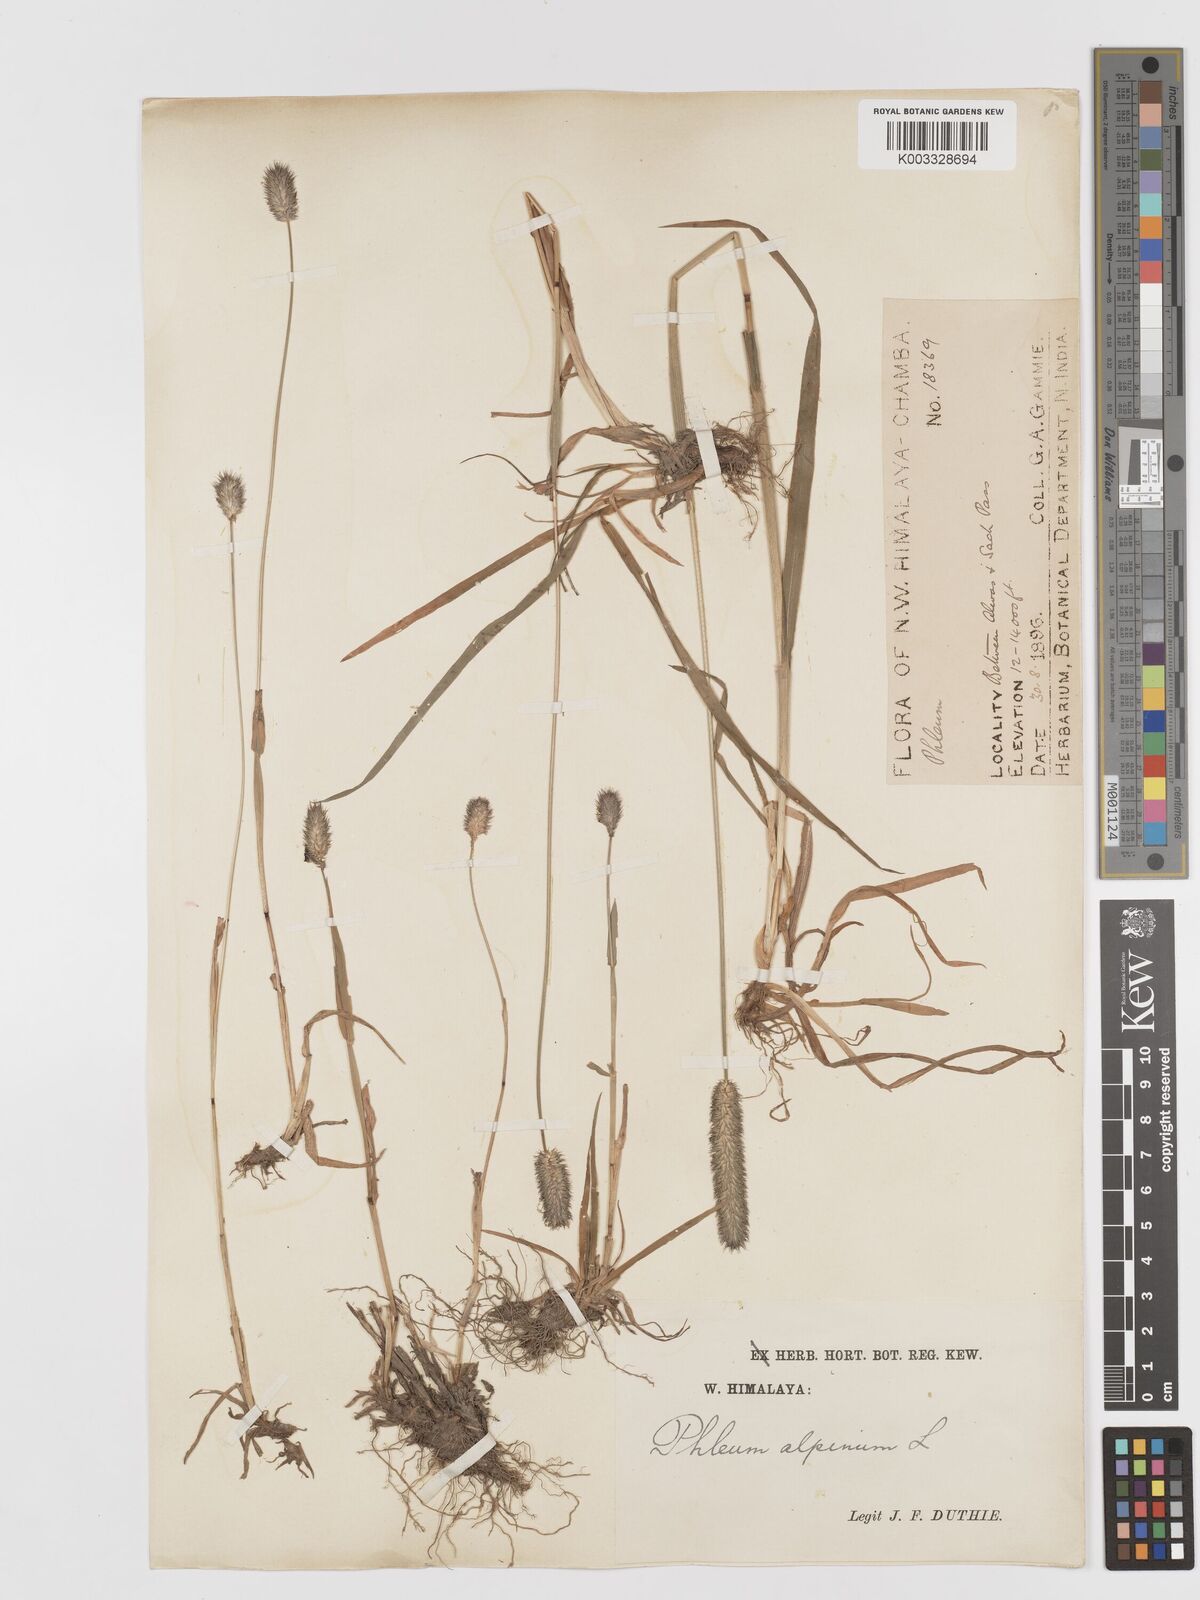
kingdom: Plantae
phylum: Tracheophyta
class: Liliopsida
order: Poales
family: Poaceae
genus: Phleum
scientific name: Phleum alpinum
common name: Alpine cat's-tail
